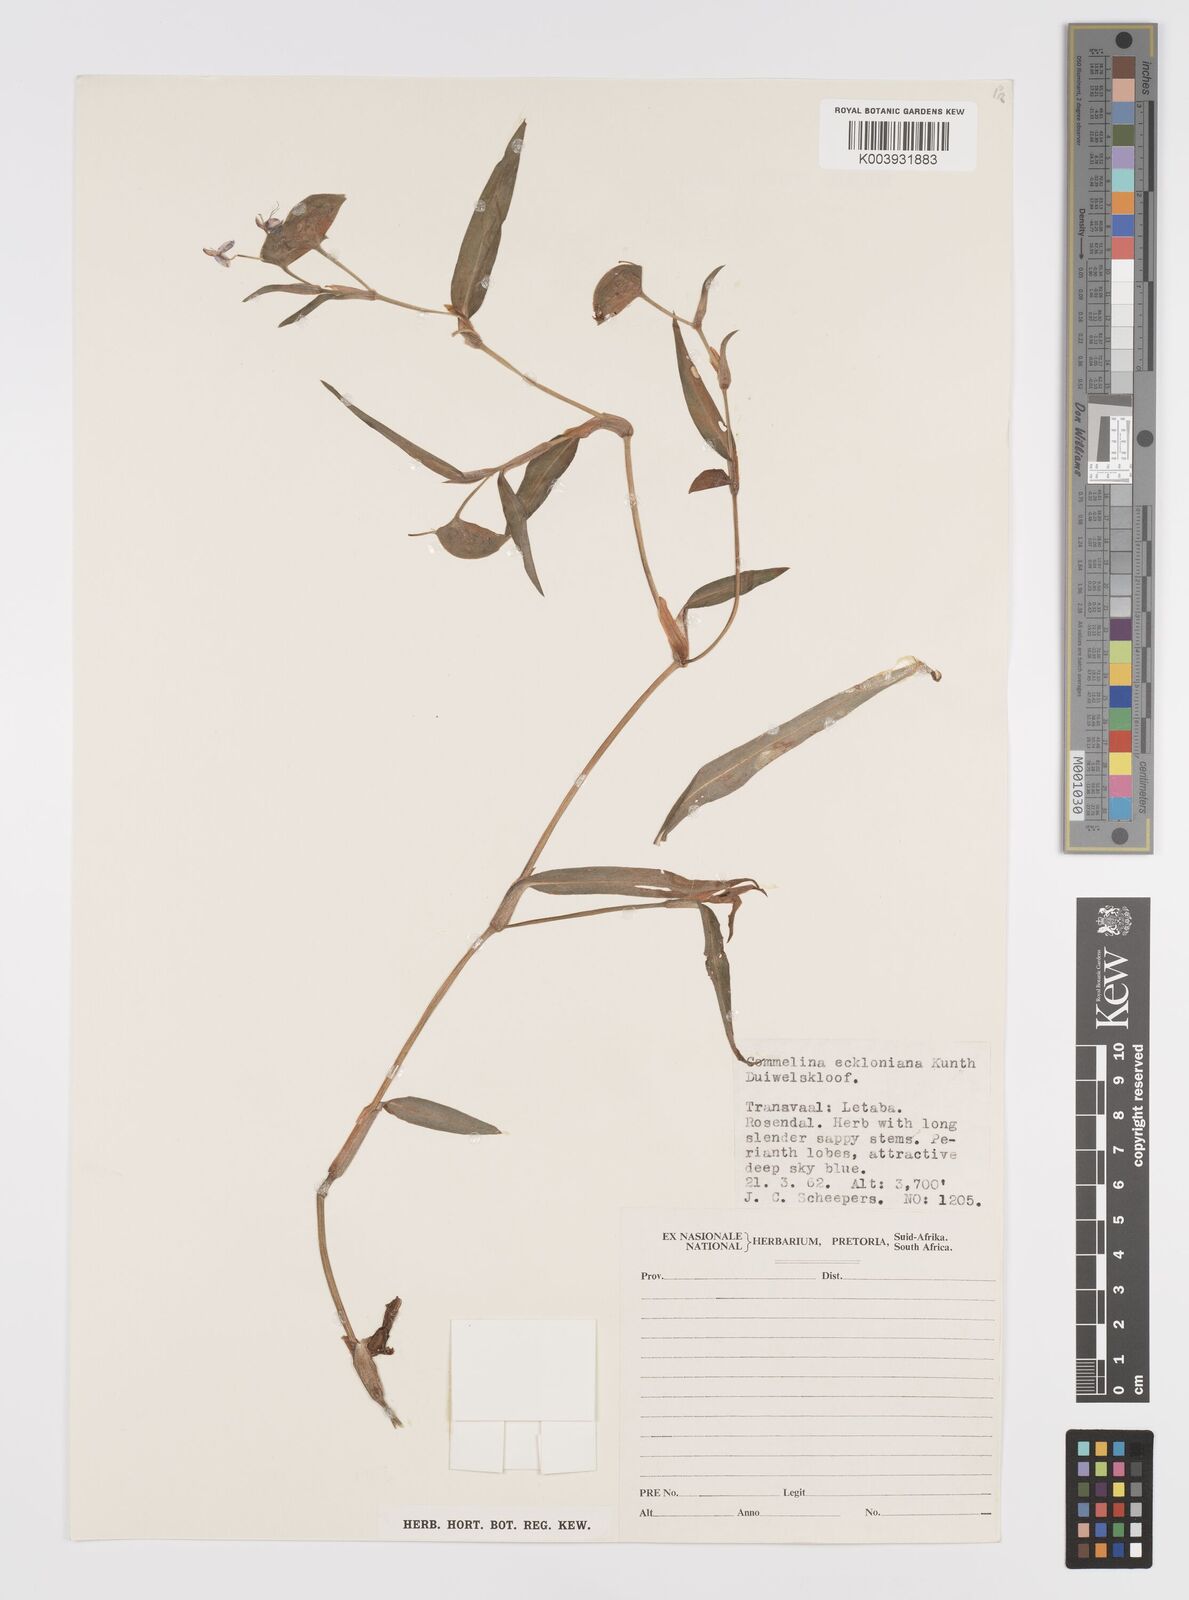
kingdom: Plantae
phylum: Tracheophyta
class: Liliopsida
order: Commelinales
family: Commelinaceae
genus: Commelina
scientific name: Commelina eckloniana
